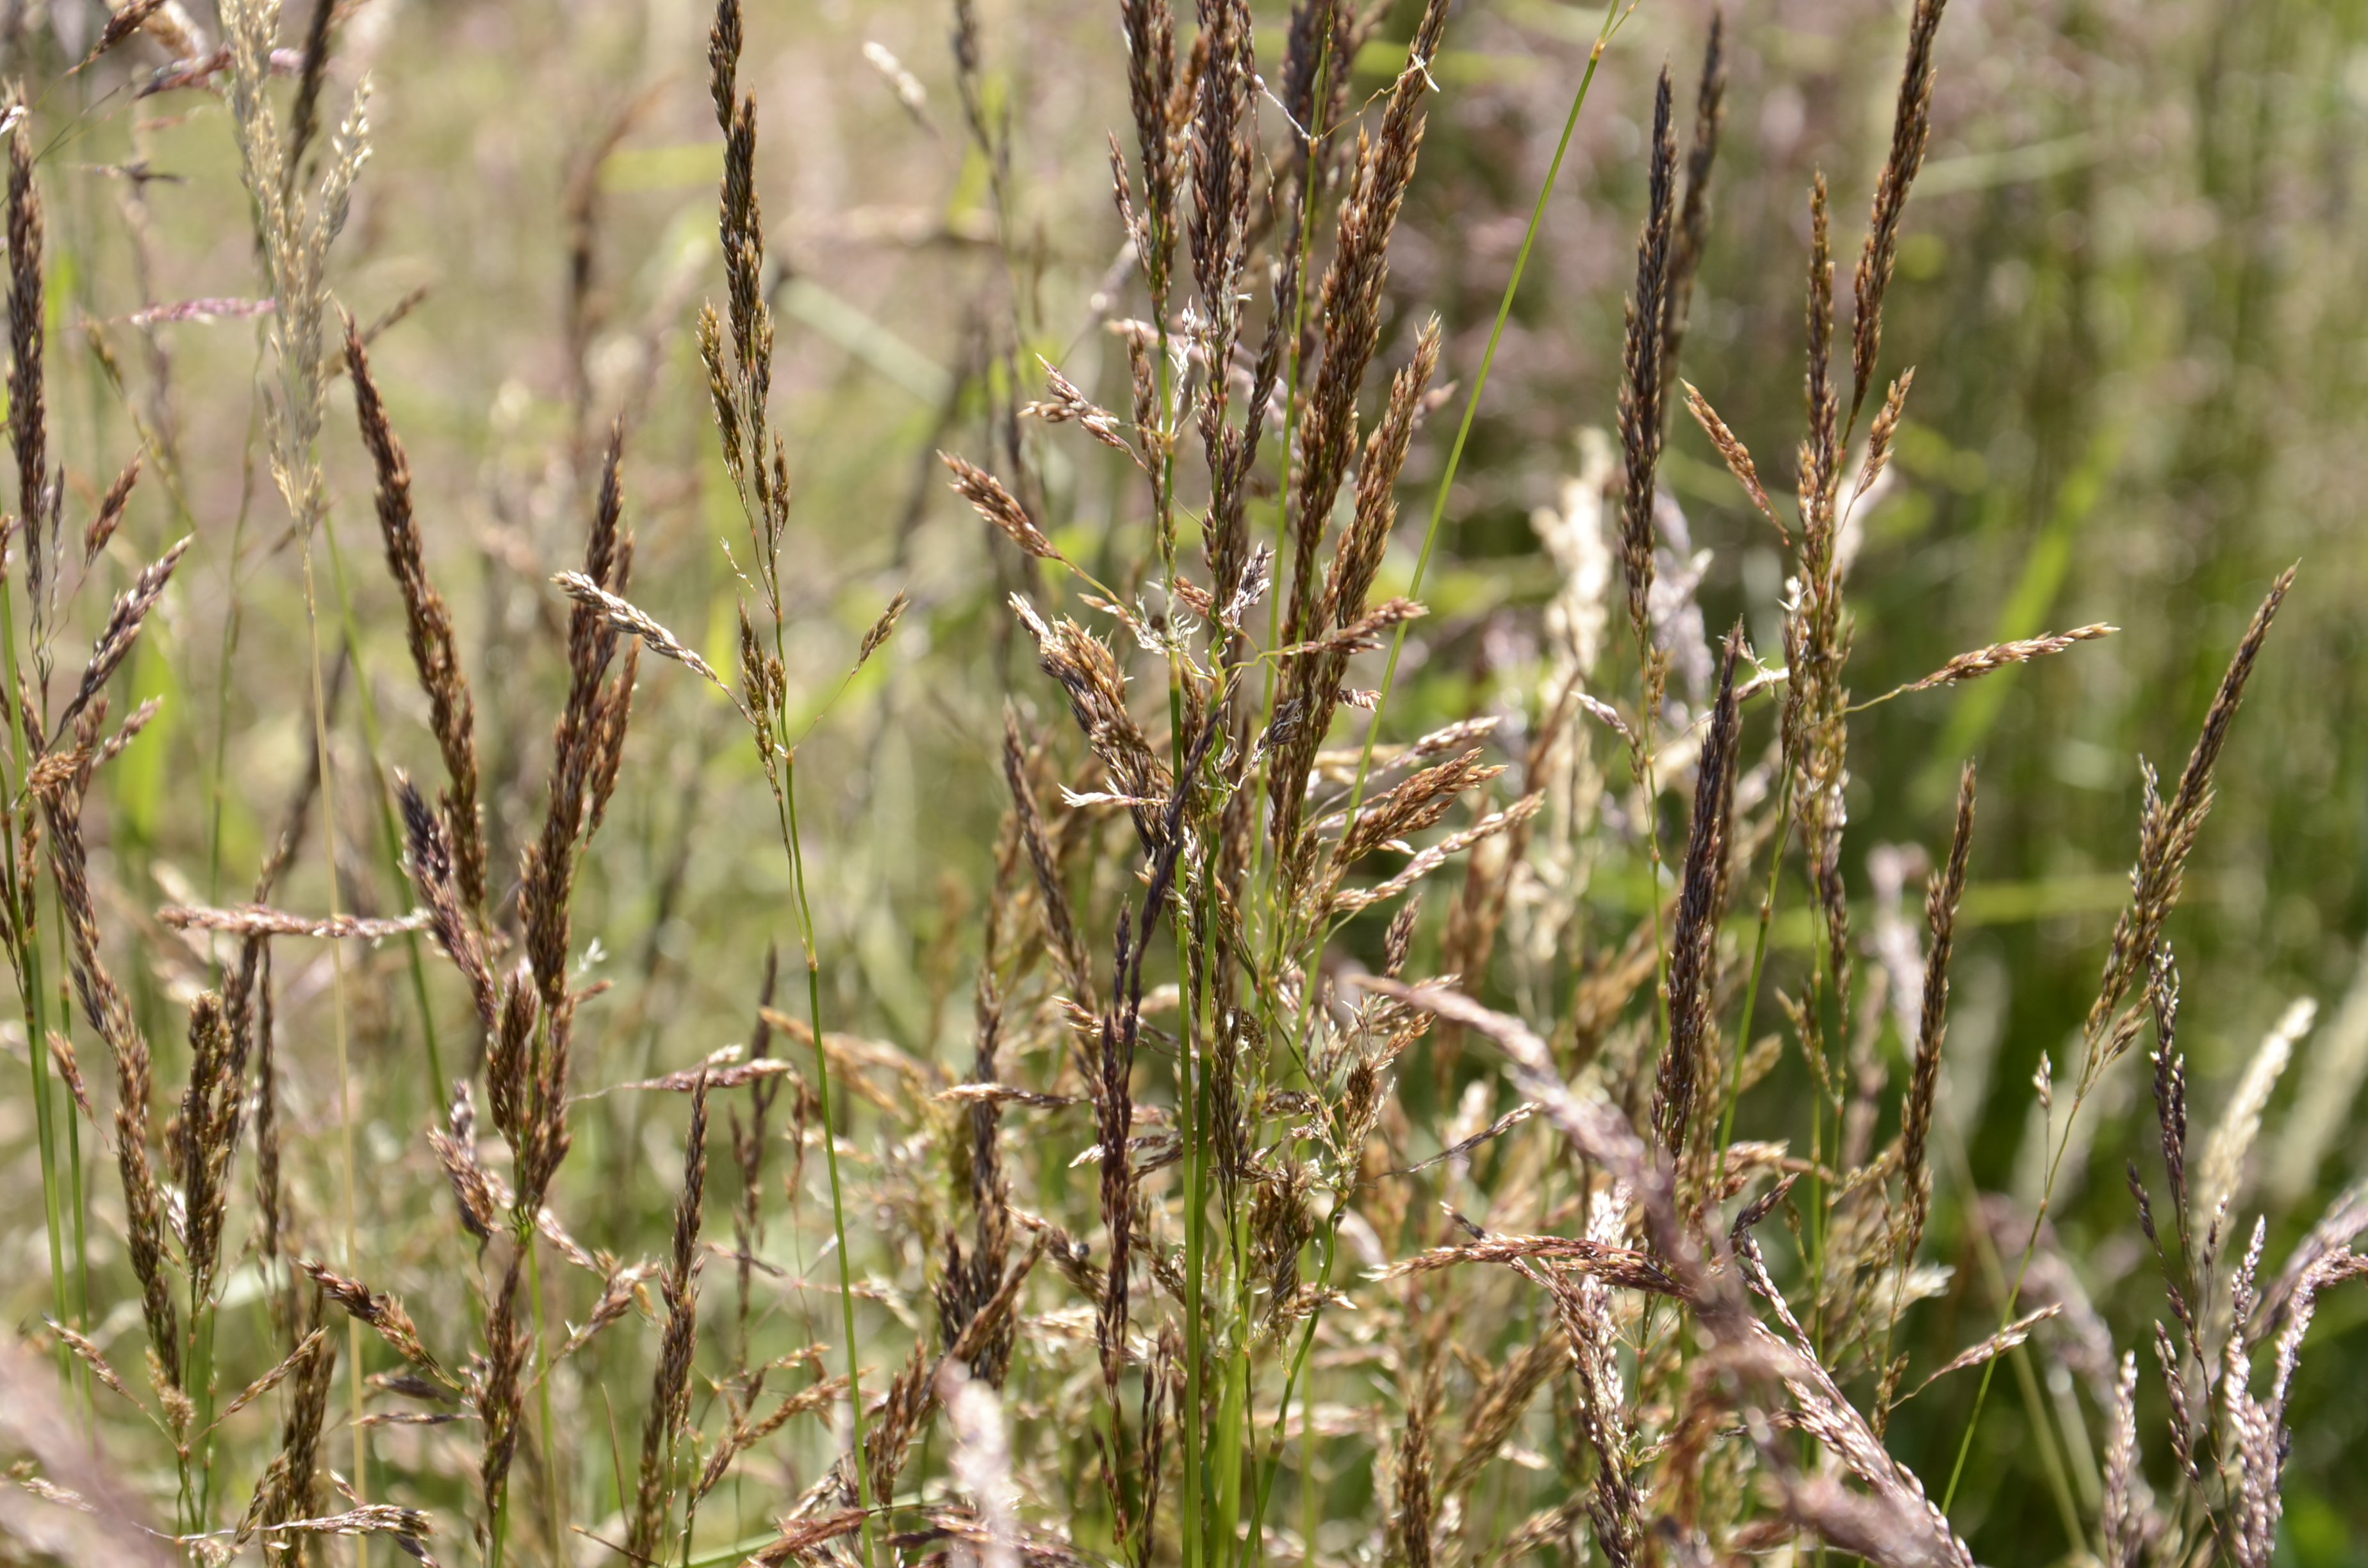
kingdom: Plantae
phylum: Tracheophyta
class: Liliopsida
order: Poales
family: Poaceae
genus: Agrostis
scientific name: Agrostis capillaris
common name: Colonial bentgrass
